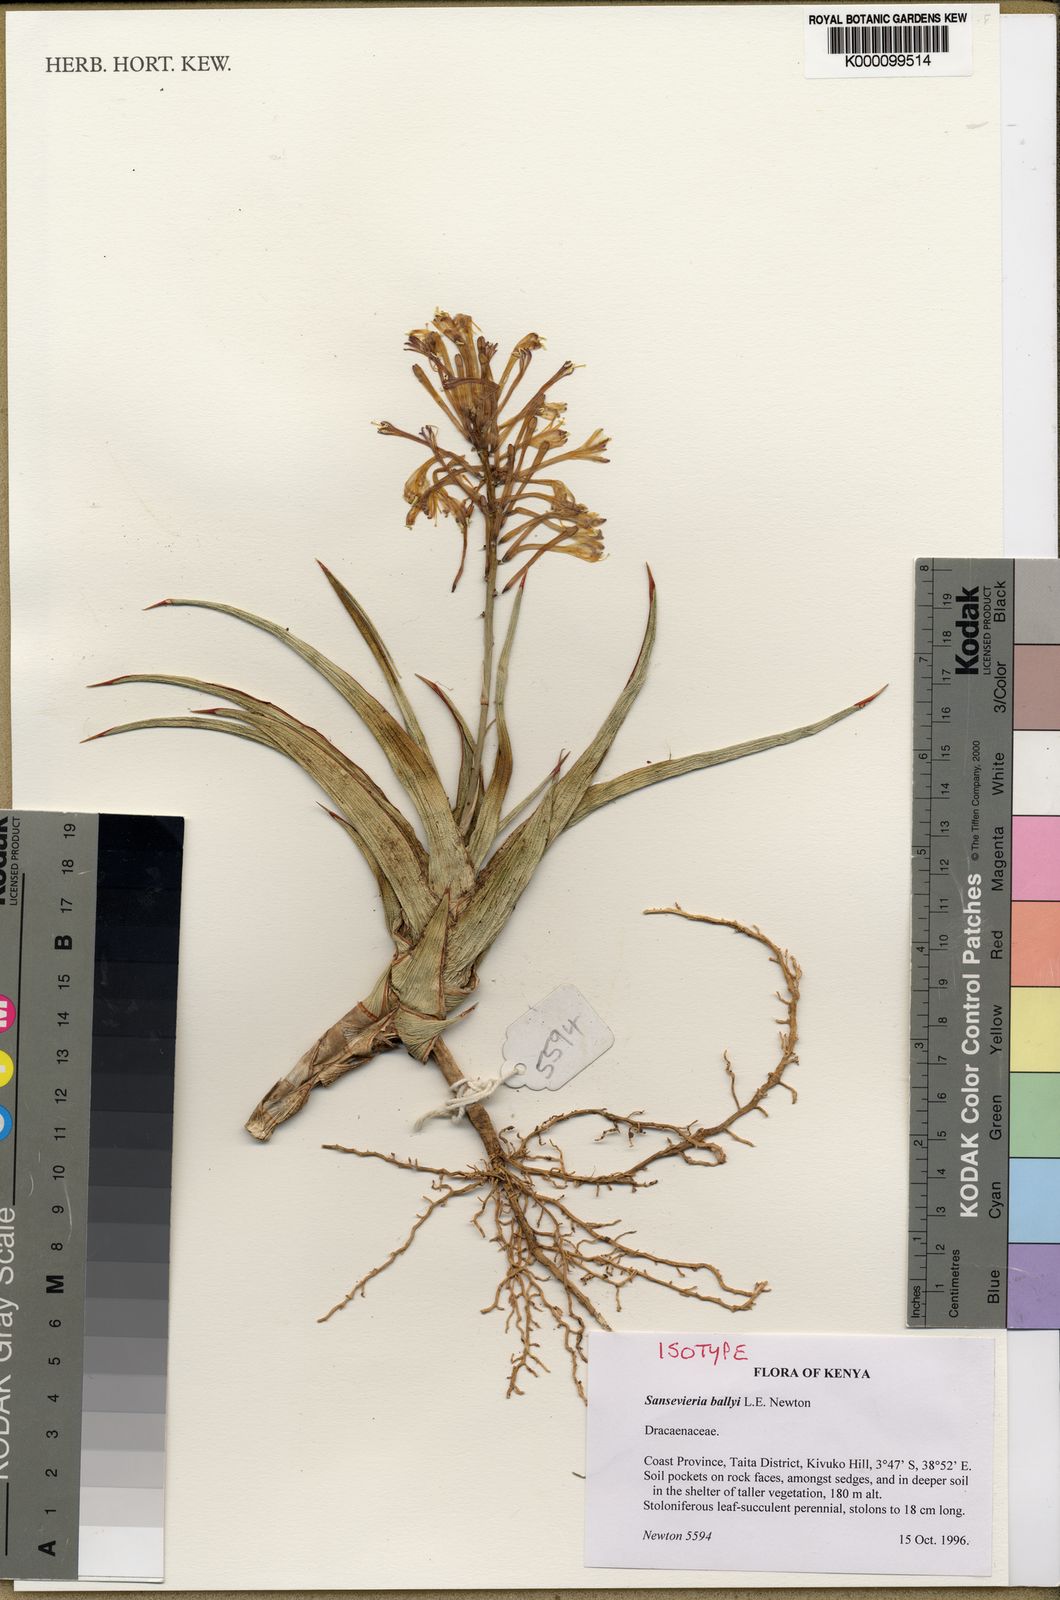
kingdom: Plantae
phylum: Tracheophyta
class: Liliopsida
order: Asparagales
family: Asparagaceae
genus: Dracaena
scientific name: Dracaena ballyi
